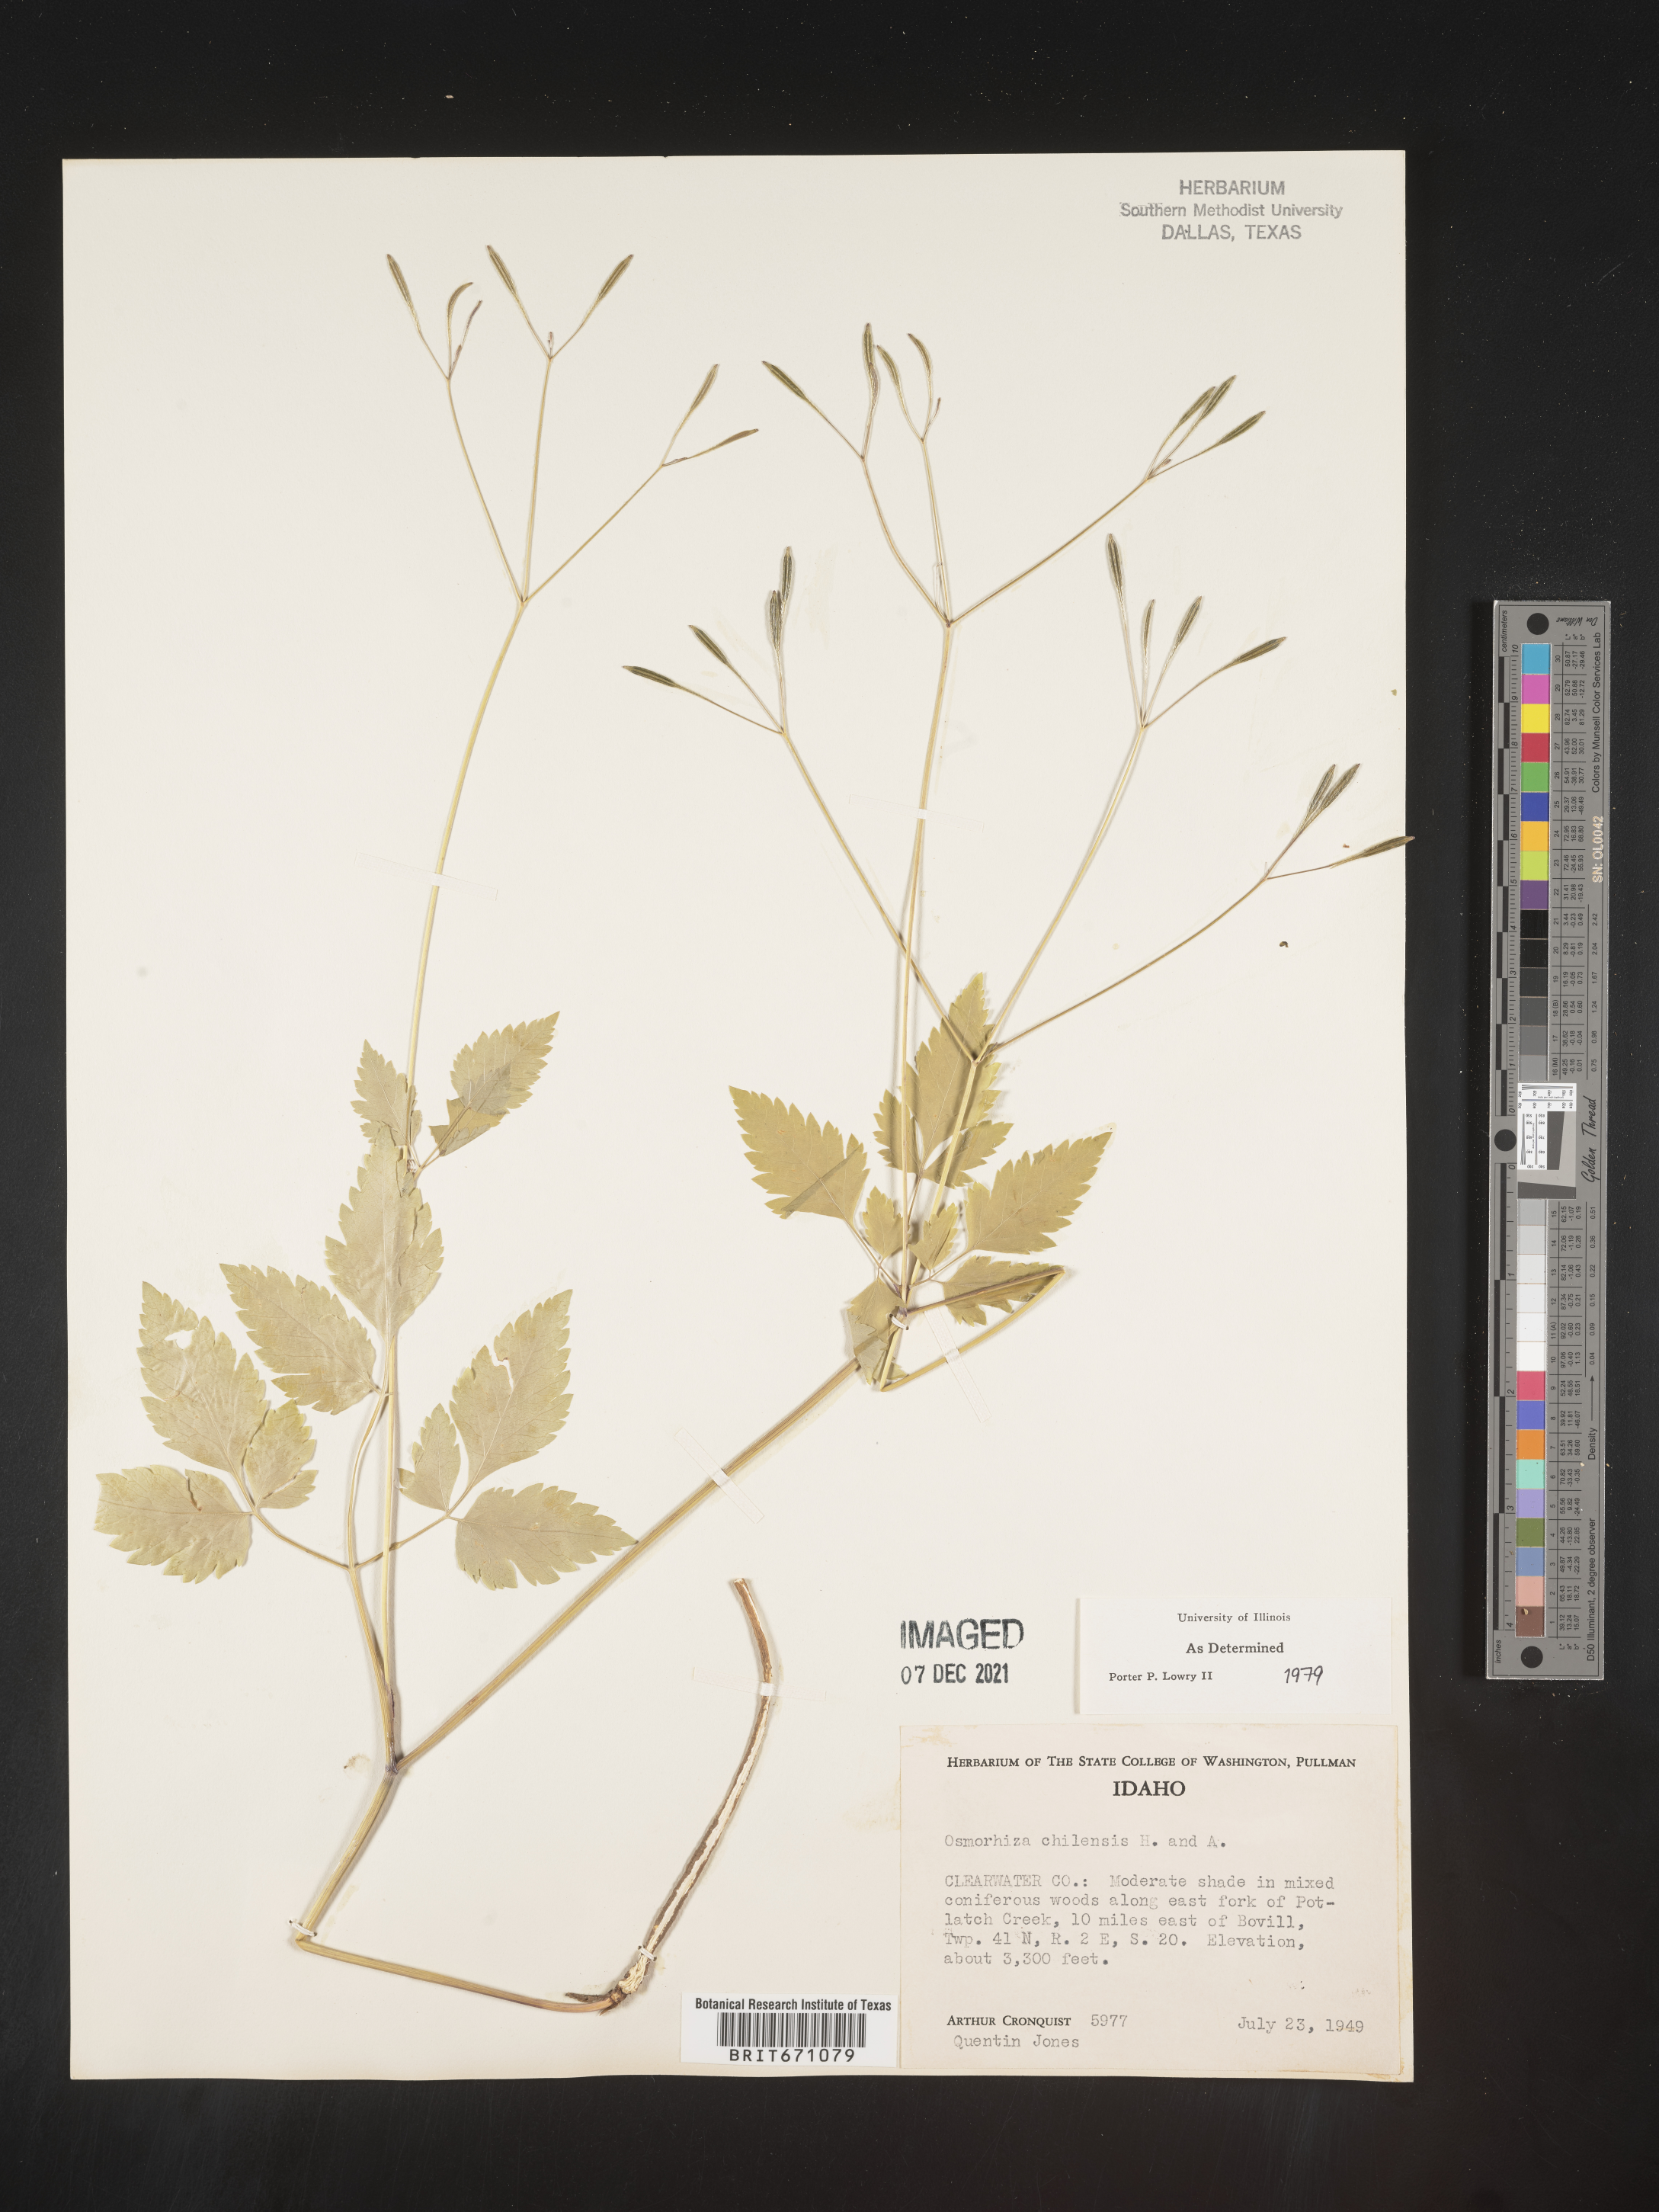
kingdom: Plantae
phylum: Tracheophyta
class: Magnoliopsida
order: Apiales
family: Apiaceae
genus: Osmorhiza
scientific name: Osmorhiza berteroi
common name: Mountain sweet cicely
